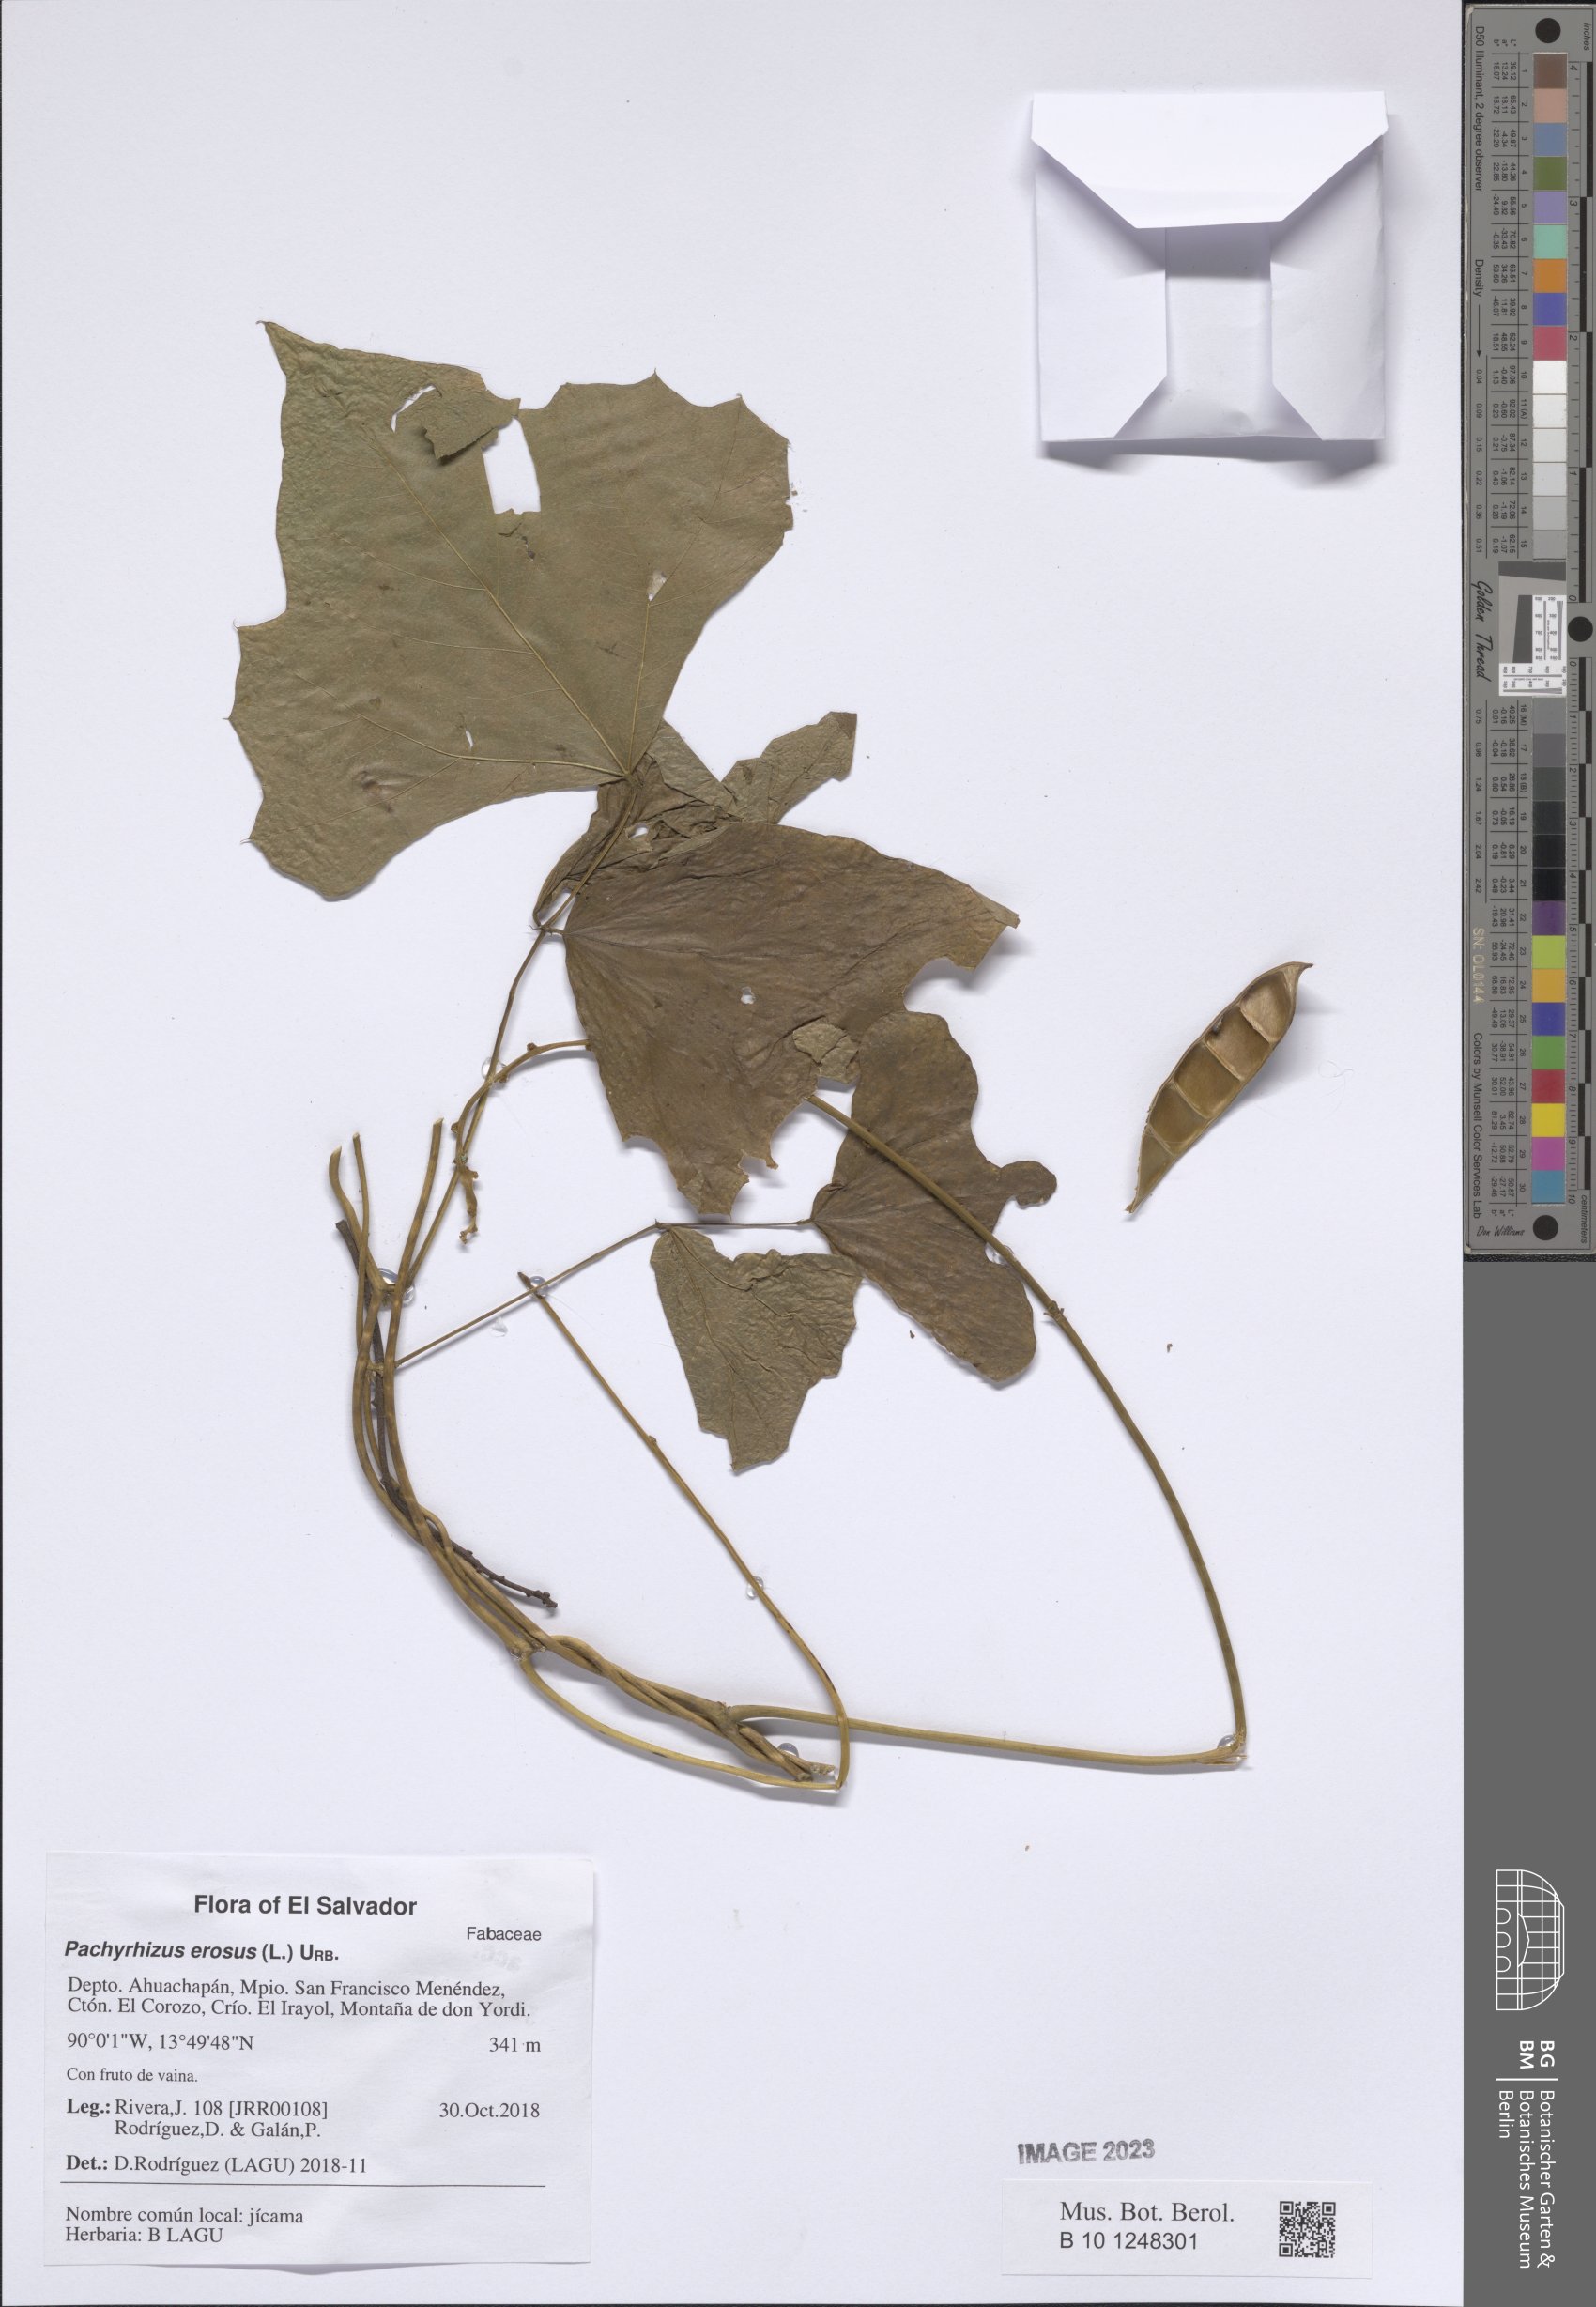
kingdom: Plantae
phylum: Tracheophyta
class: Magnoliopsida
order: Fabales
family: Fabaceae
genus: Pachyrhizus
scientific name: Pachyrhizus erosus
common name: Yam bean
